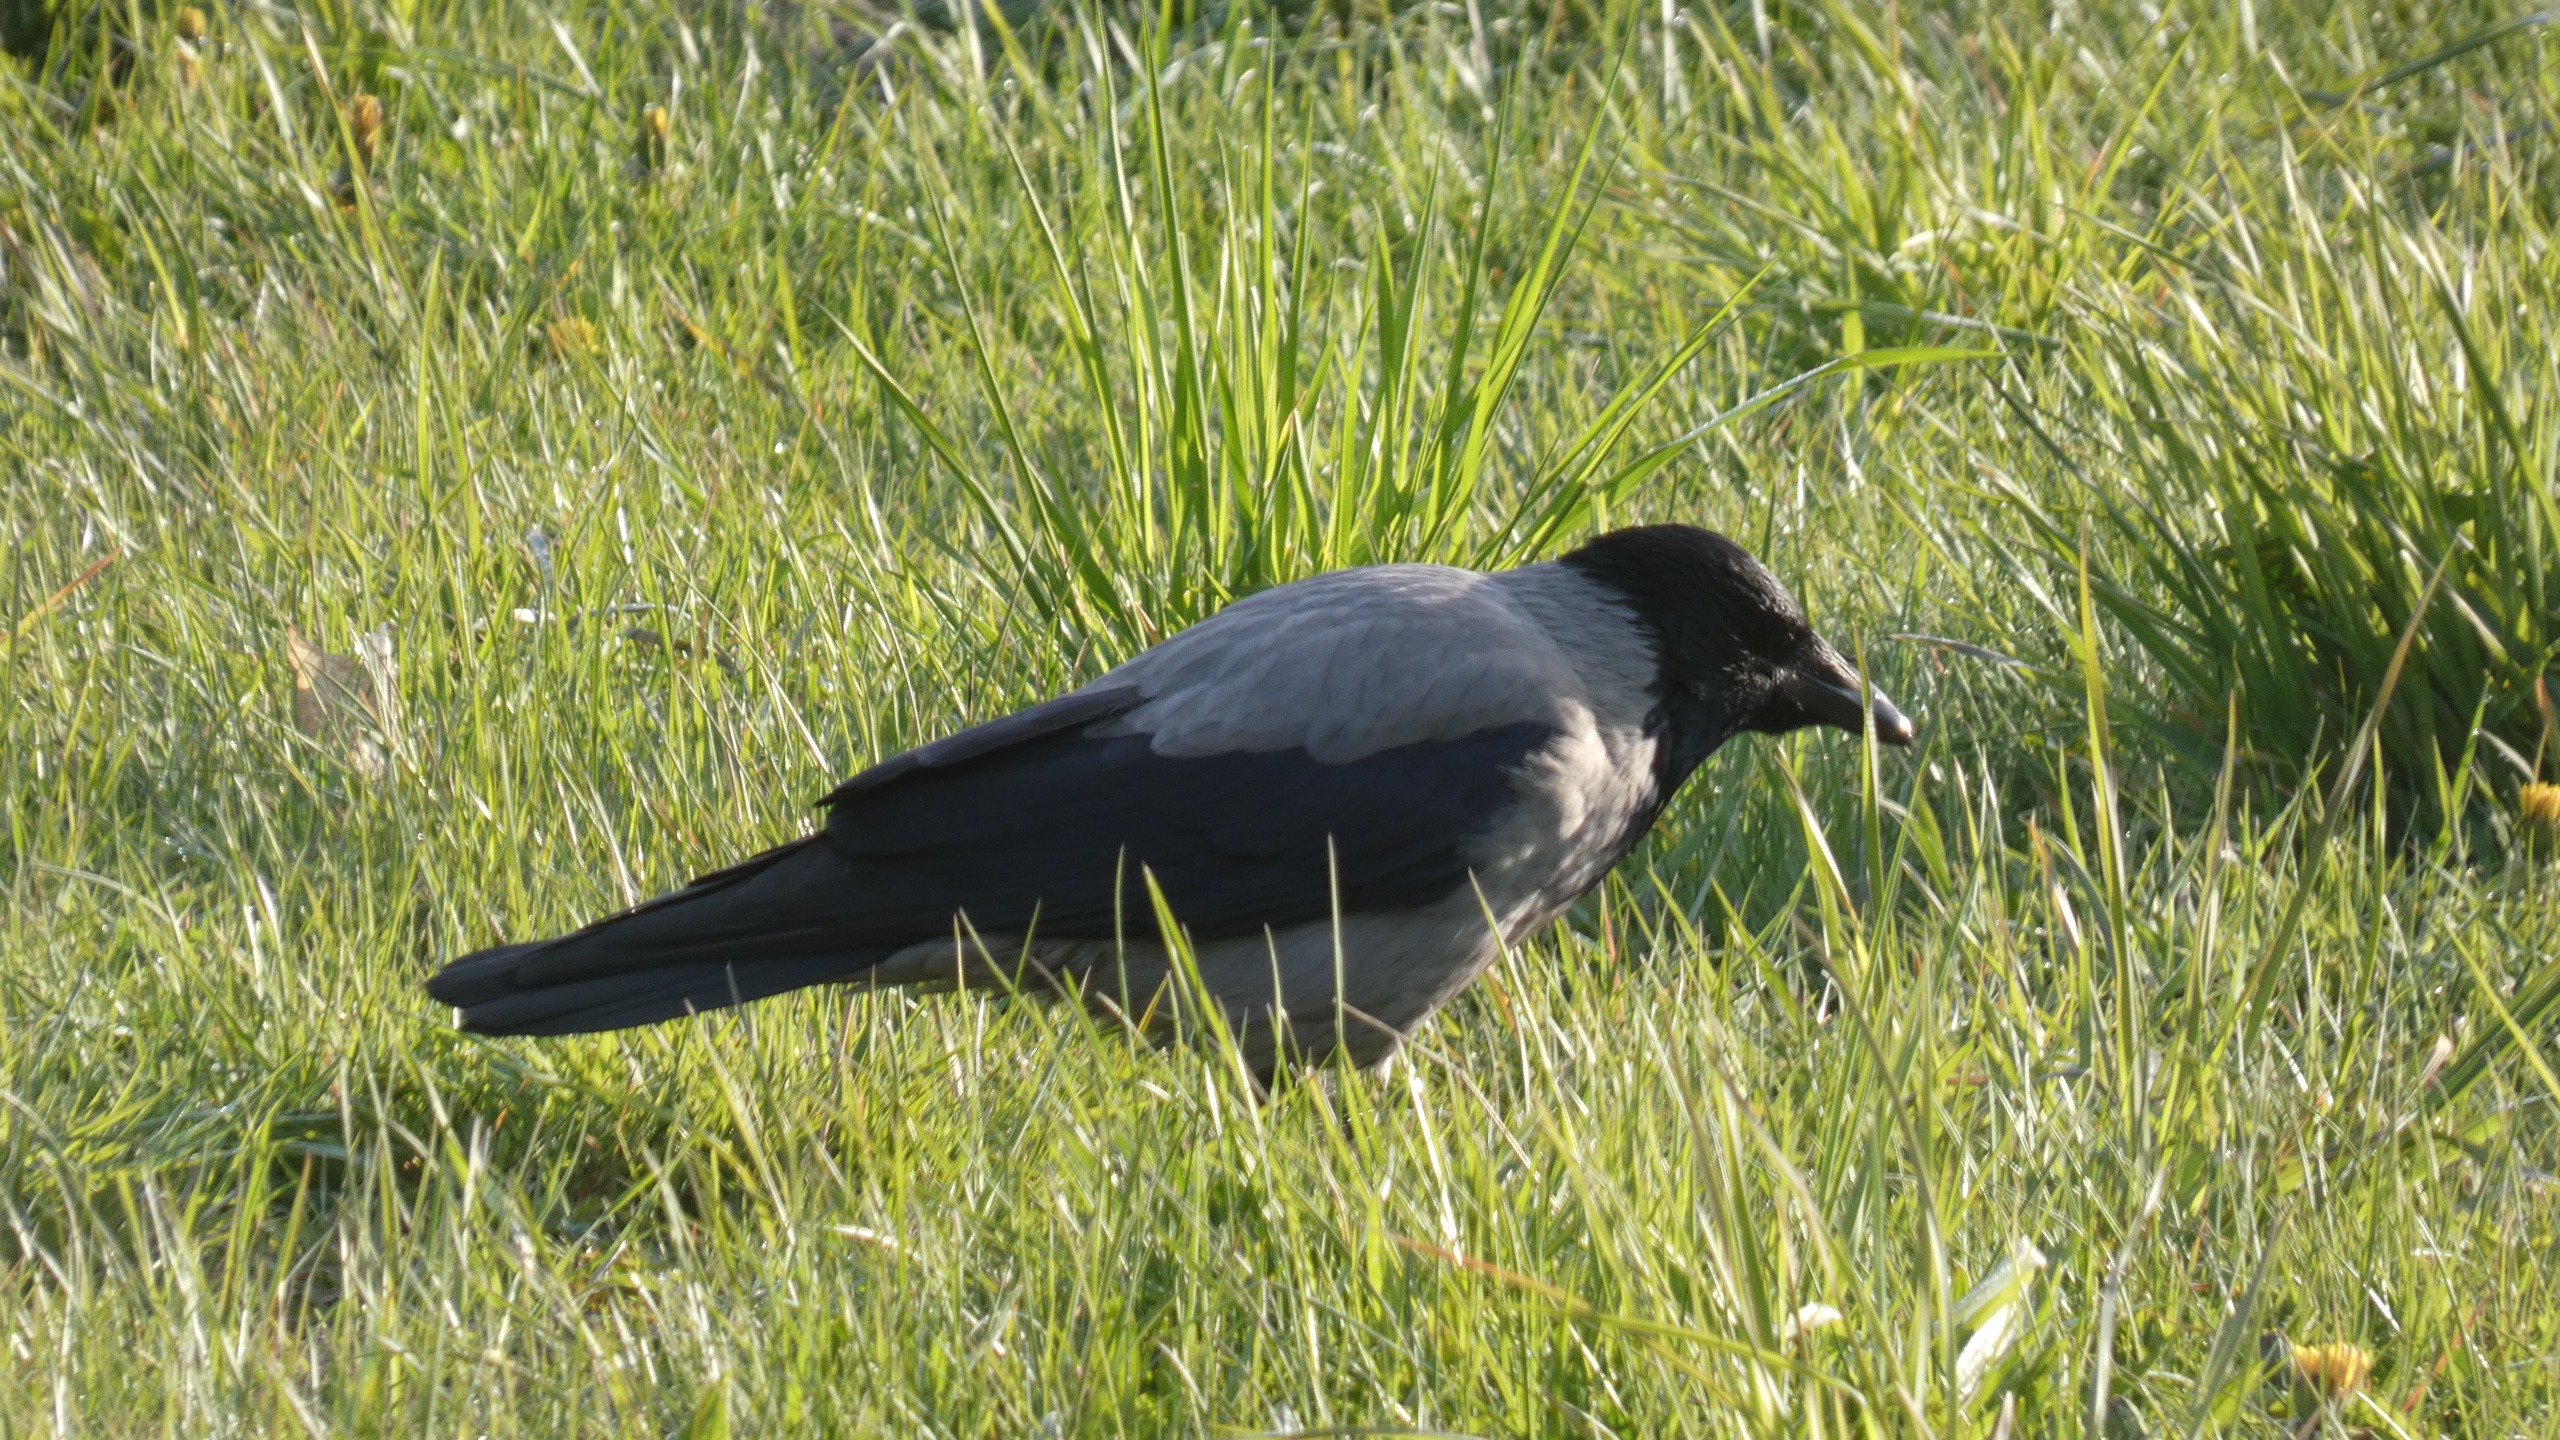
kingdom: Animalia
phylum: Chordata
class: Aves
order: Passeriformes
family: Corvidae
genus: Corvus
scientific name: Corvus cornix
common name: Gråkrage
